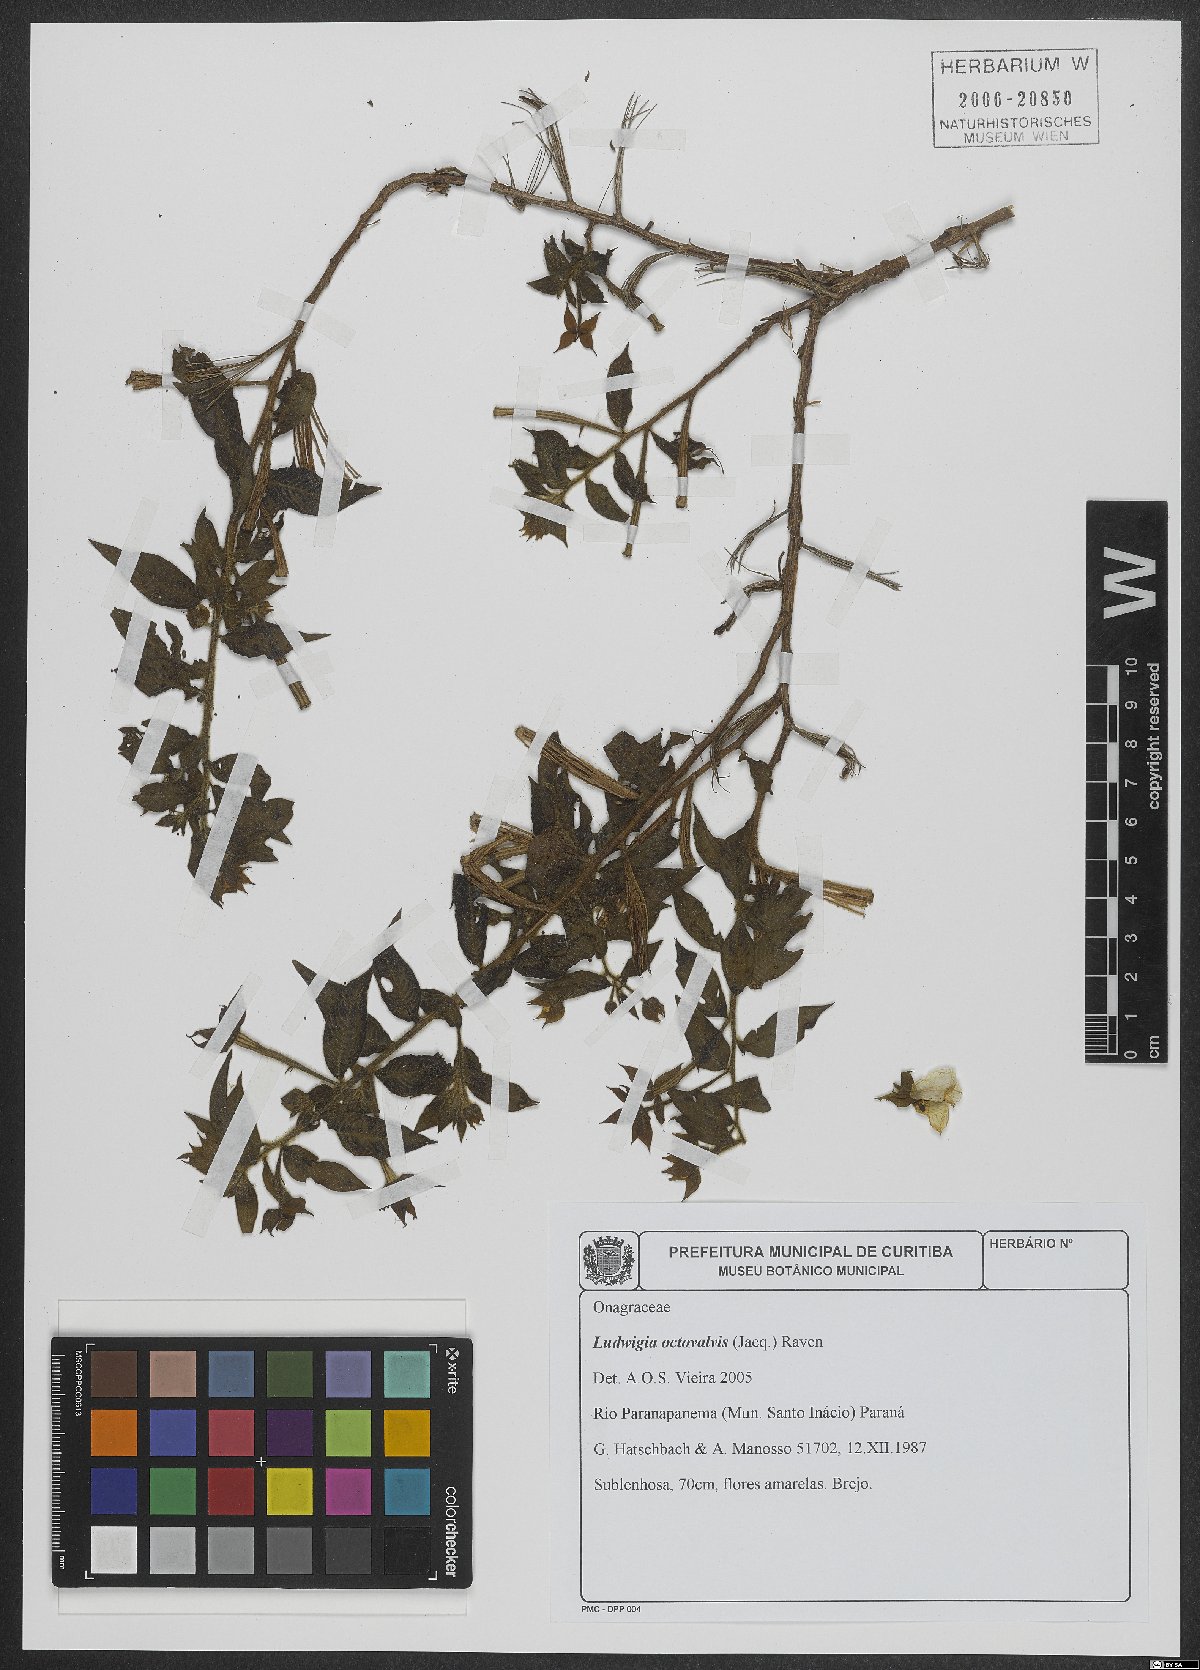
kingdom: Plantae
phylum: Tracheophyta
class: Magnoliopsida
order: Myrtales
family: Onagraceae
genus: Ludwigia
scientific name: Ludwigia octovalvis
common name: Water-primrose
